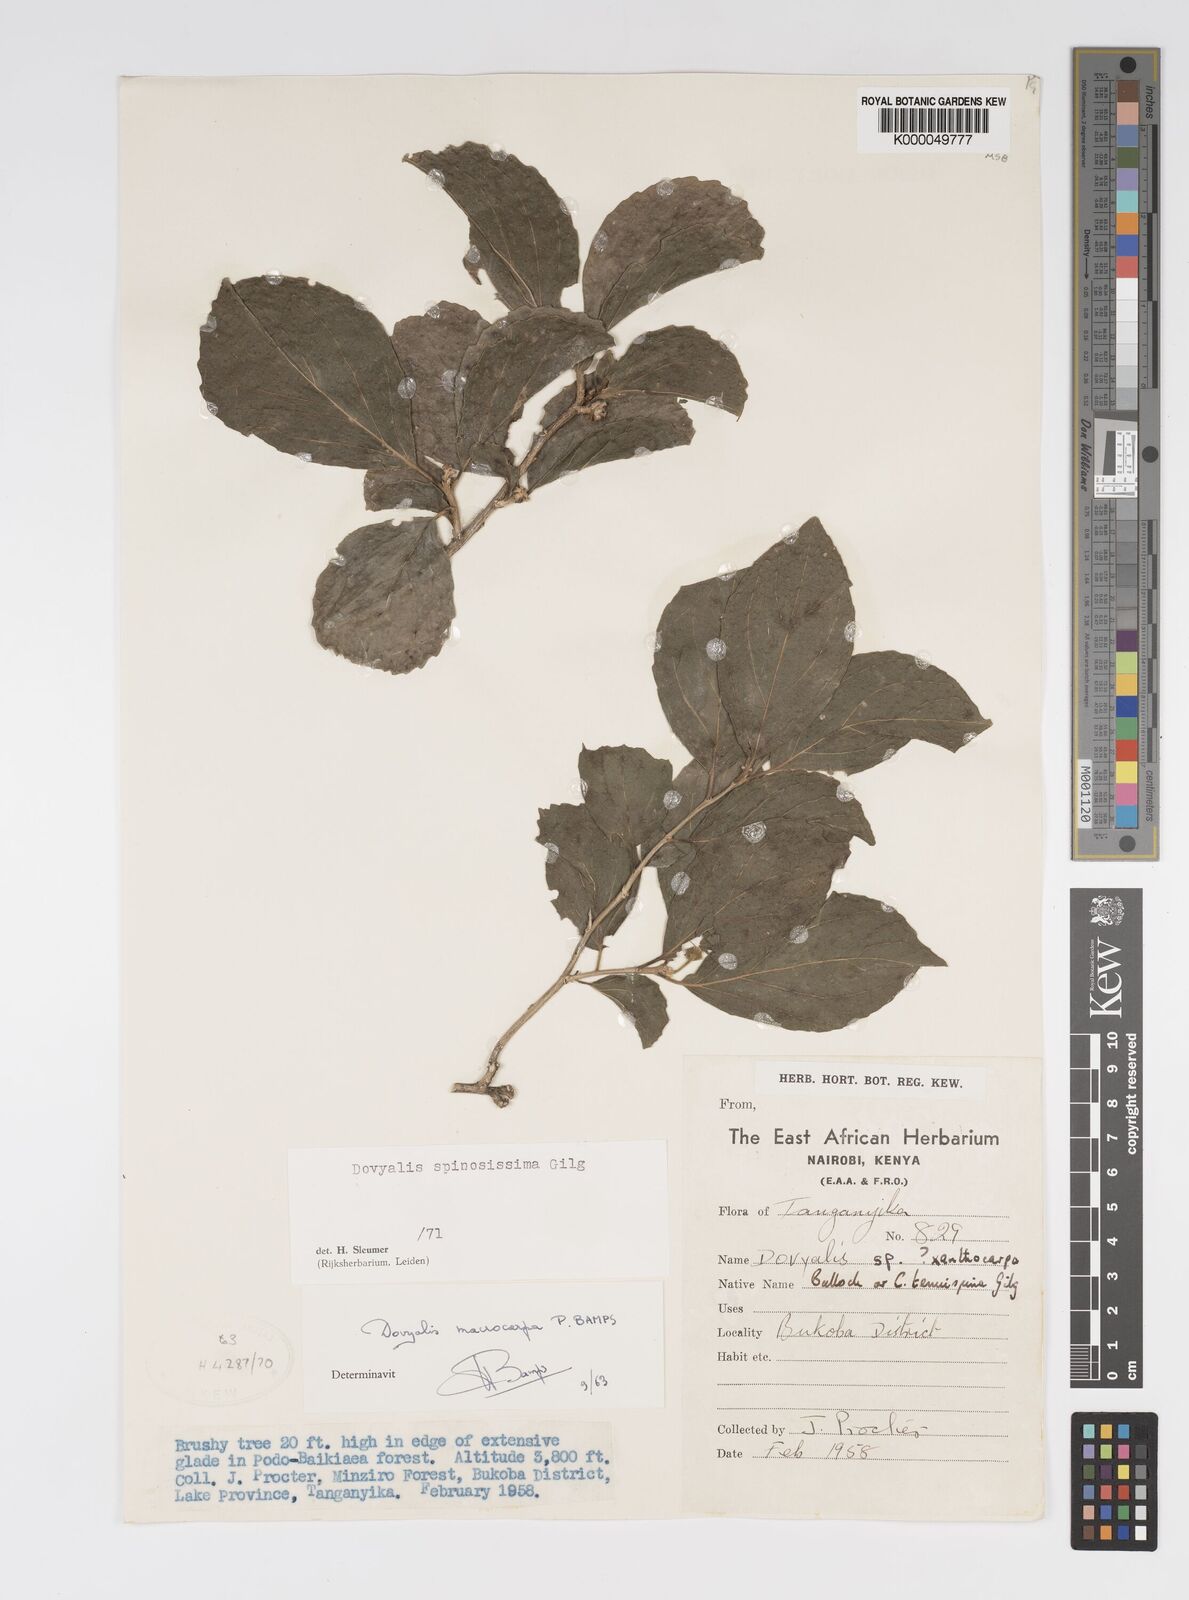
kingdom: Plantae
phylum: Tracheophyta
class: Magnoliopsida
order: Malpighiales
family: Salicaceae
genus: Dovyalis
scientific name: Dovyalis spinosissima
